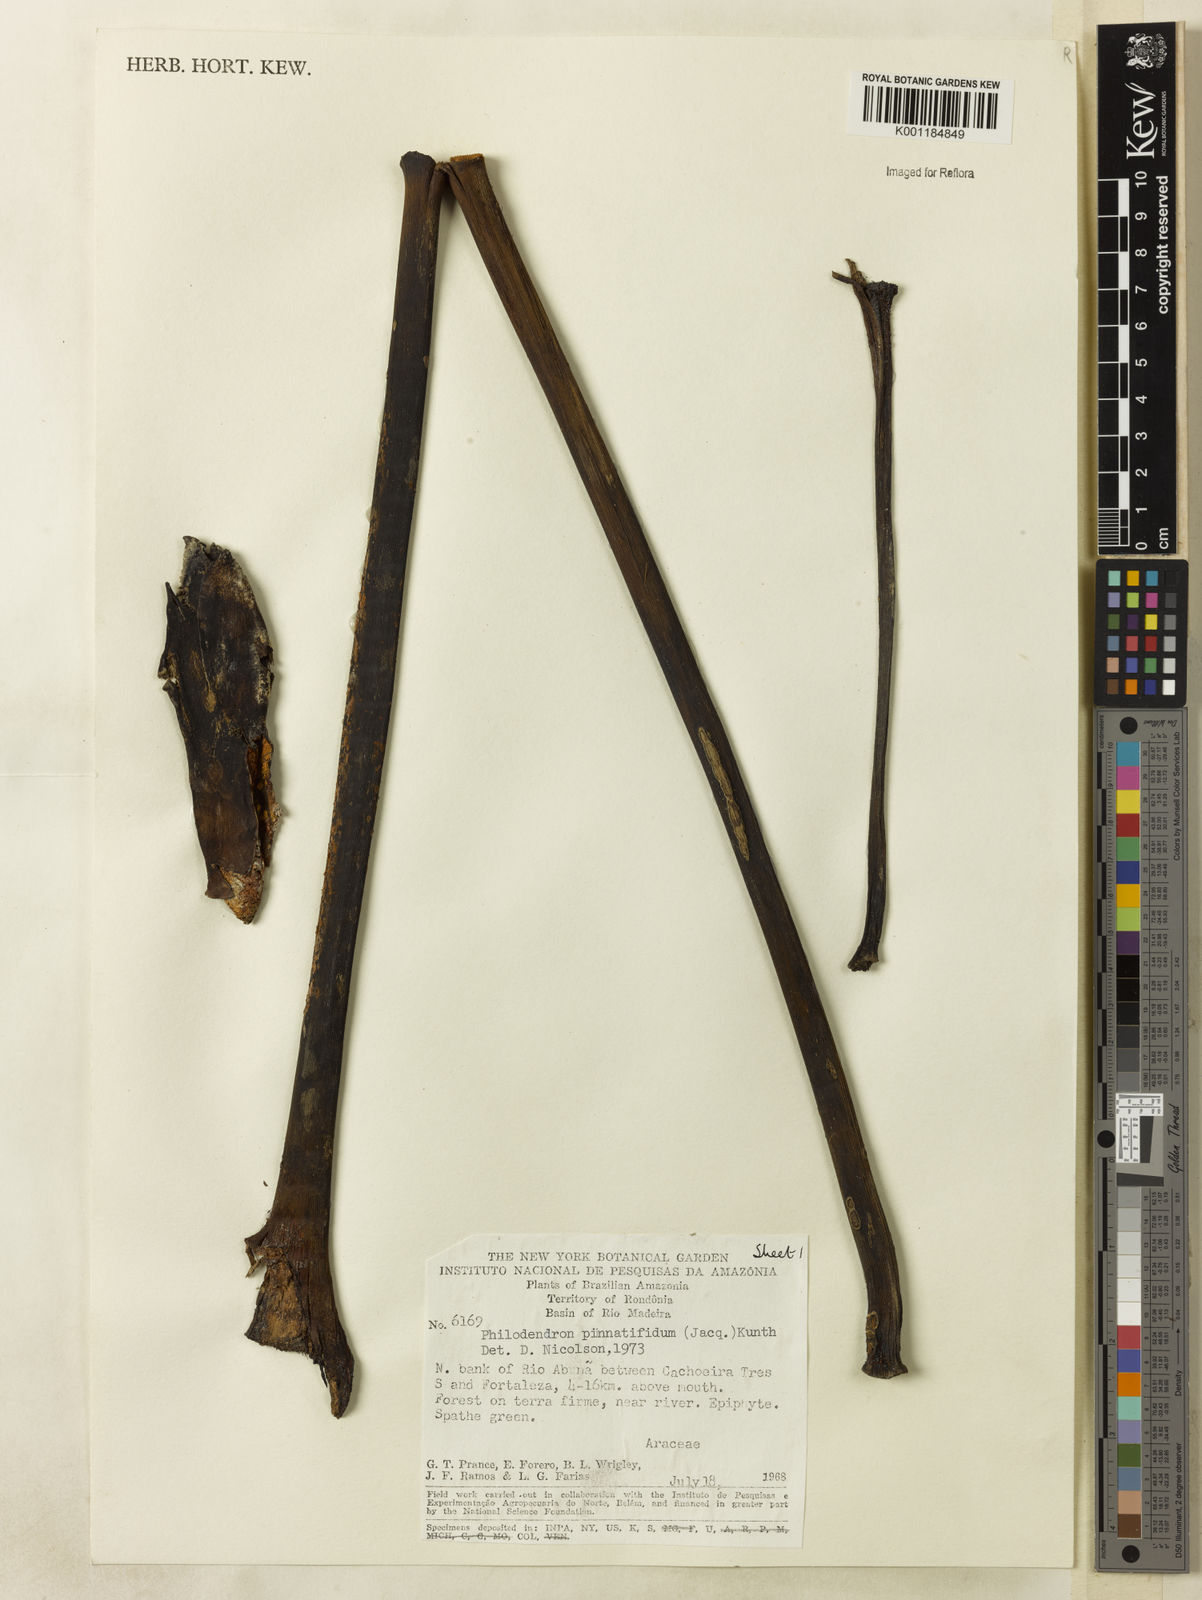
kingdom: Plantae
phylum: Tracheophyta
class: Liliopsida
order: Alismatales
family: Araceae
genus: Philodendron
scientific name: Philodendron
